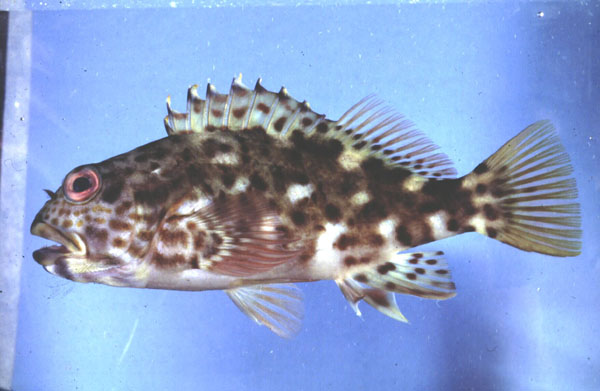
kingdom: Animalia
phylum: Chordata
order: Perciformes
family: Cirrhitidae
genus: Cirrhitus
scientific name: Cirrhitus pinnulatus
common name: Stocky hawkfish
